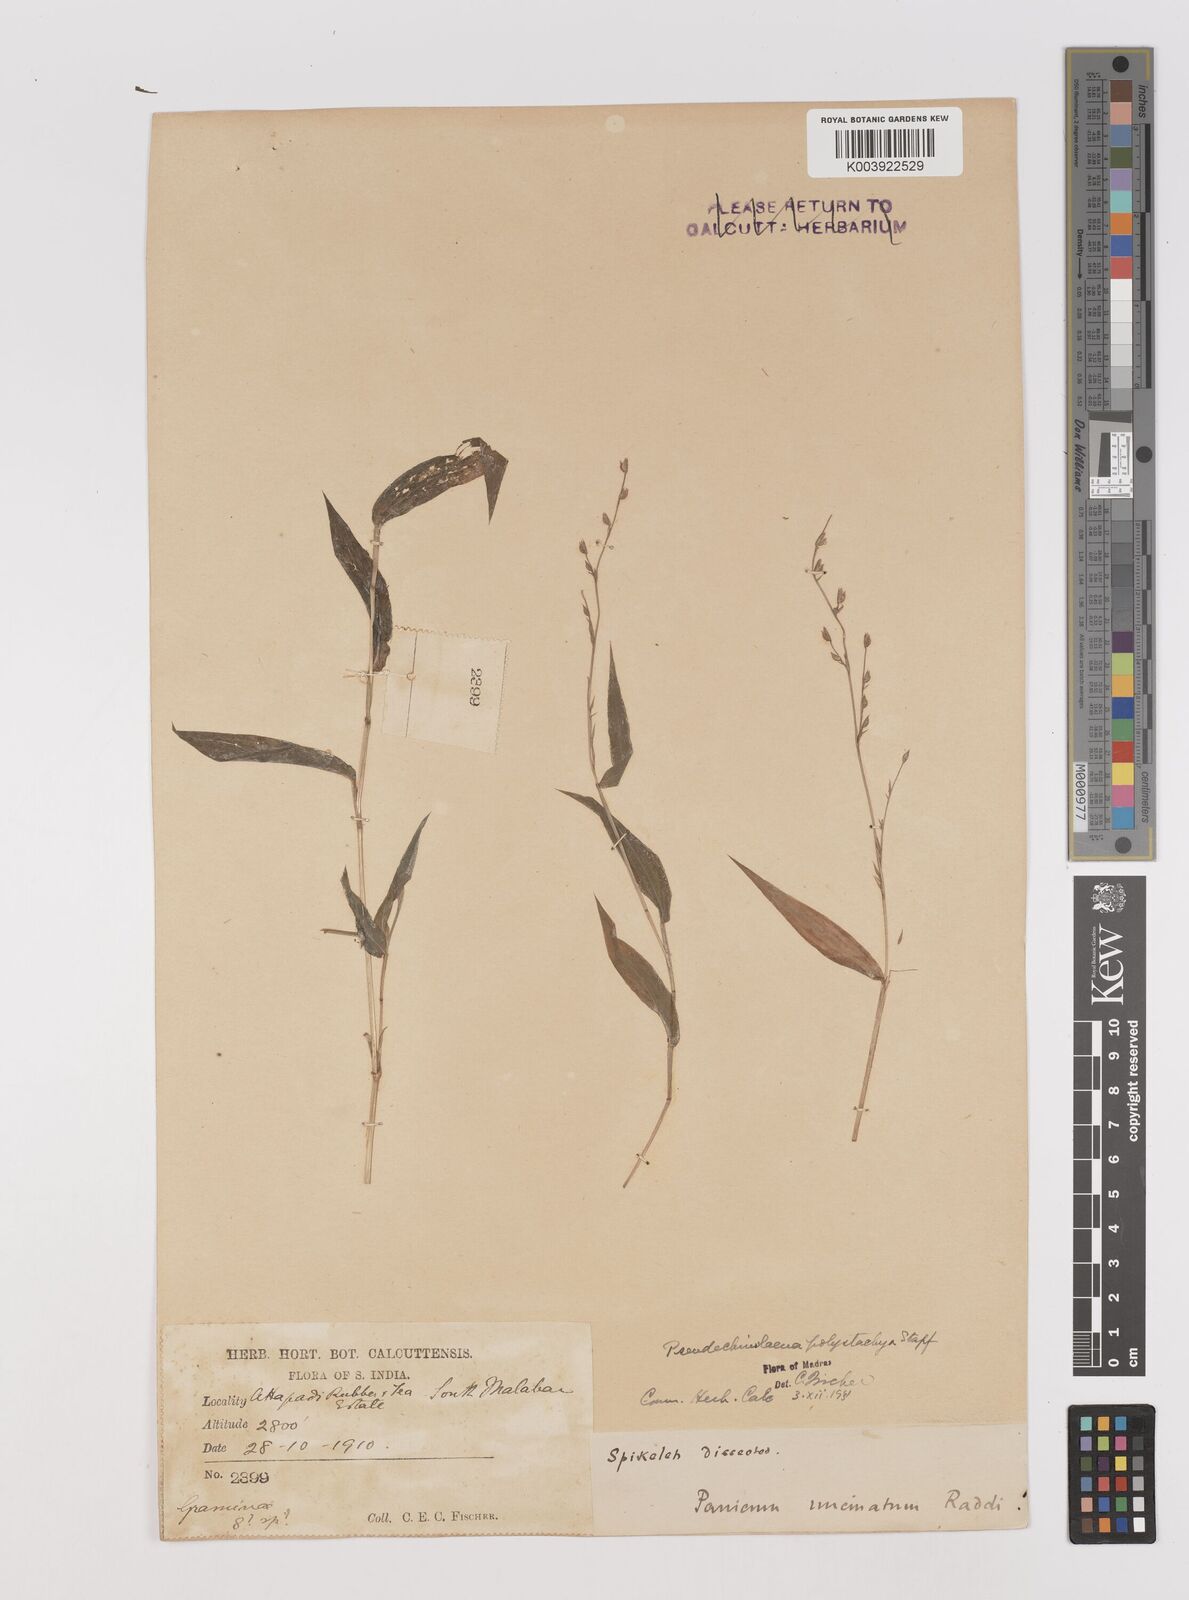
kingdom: Plantae
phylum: Tracheophyta
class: Liliopsida
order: Poales
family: Poaceae
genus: Pseudechinolaena
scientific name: Pseudechinolaena polystachya
